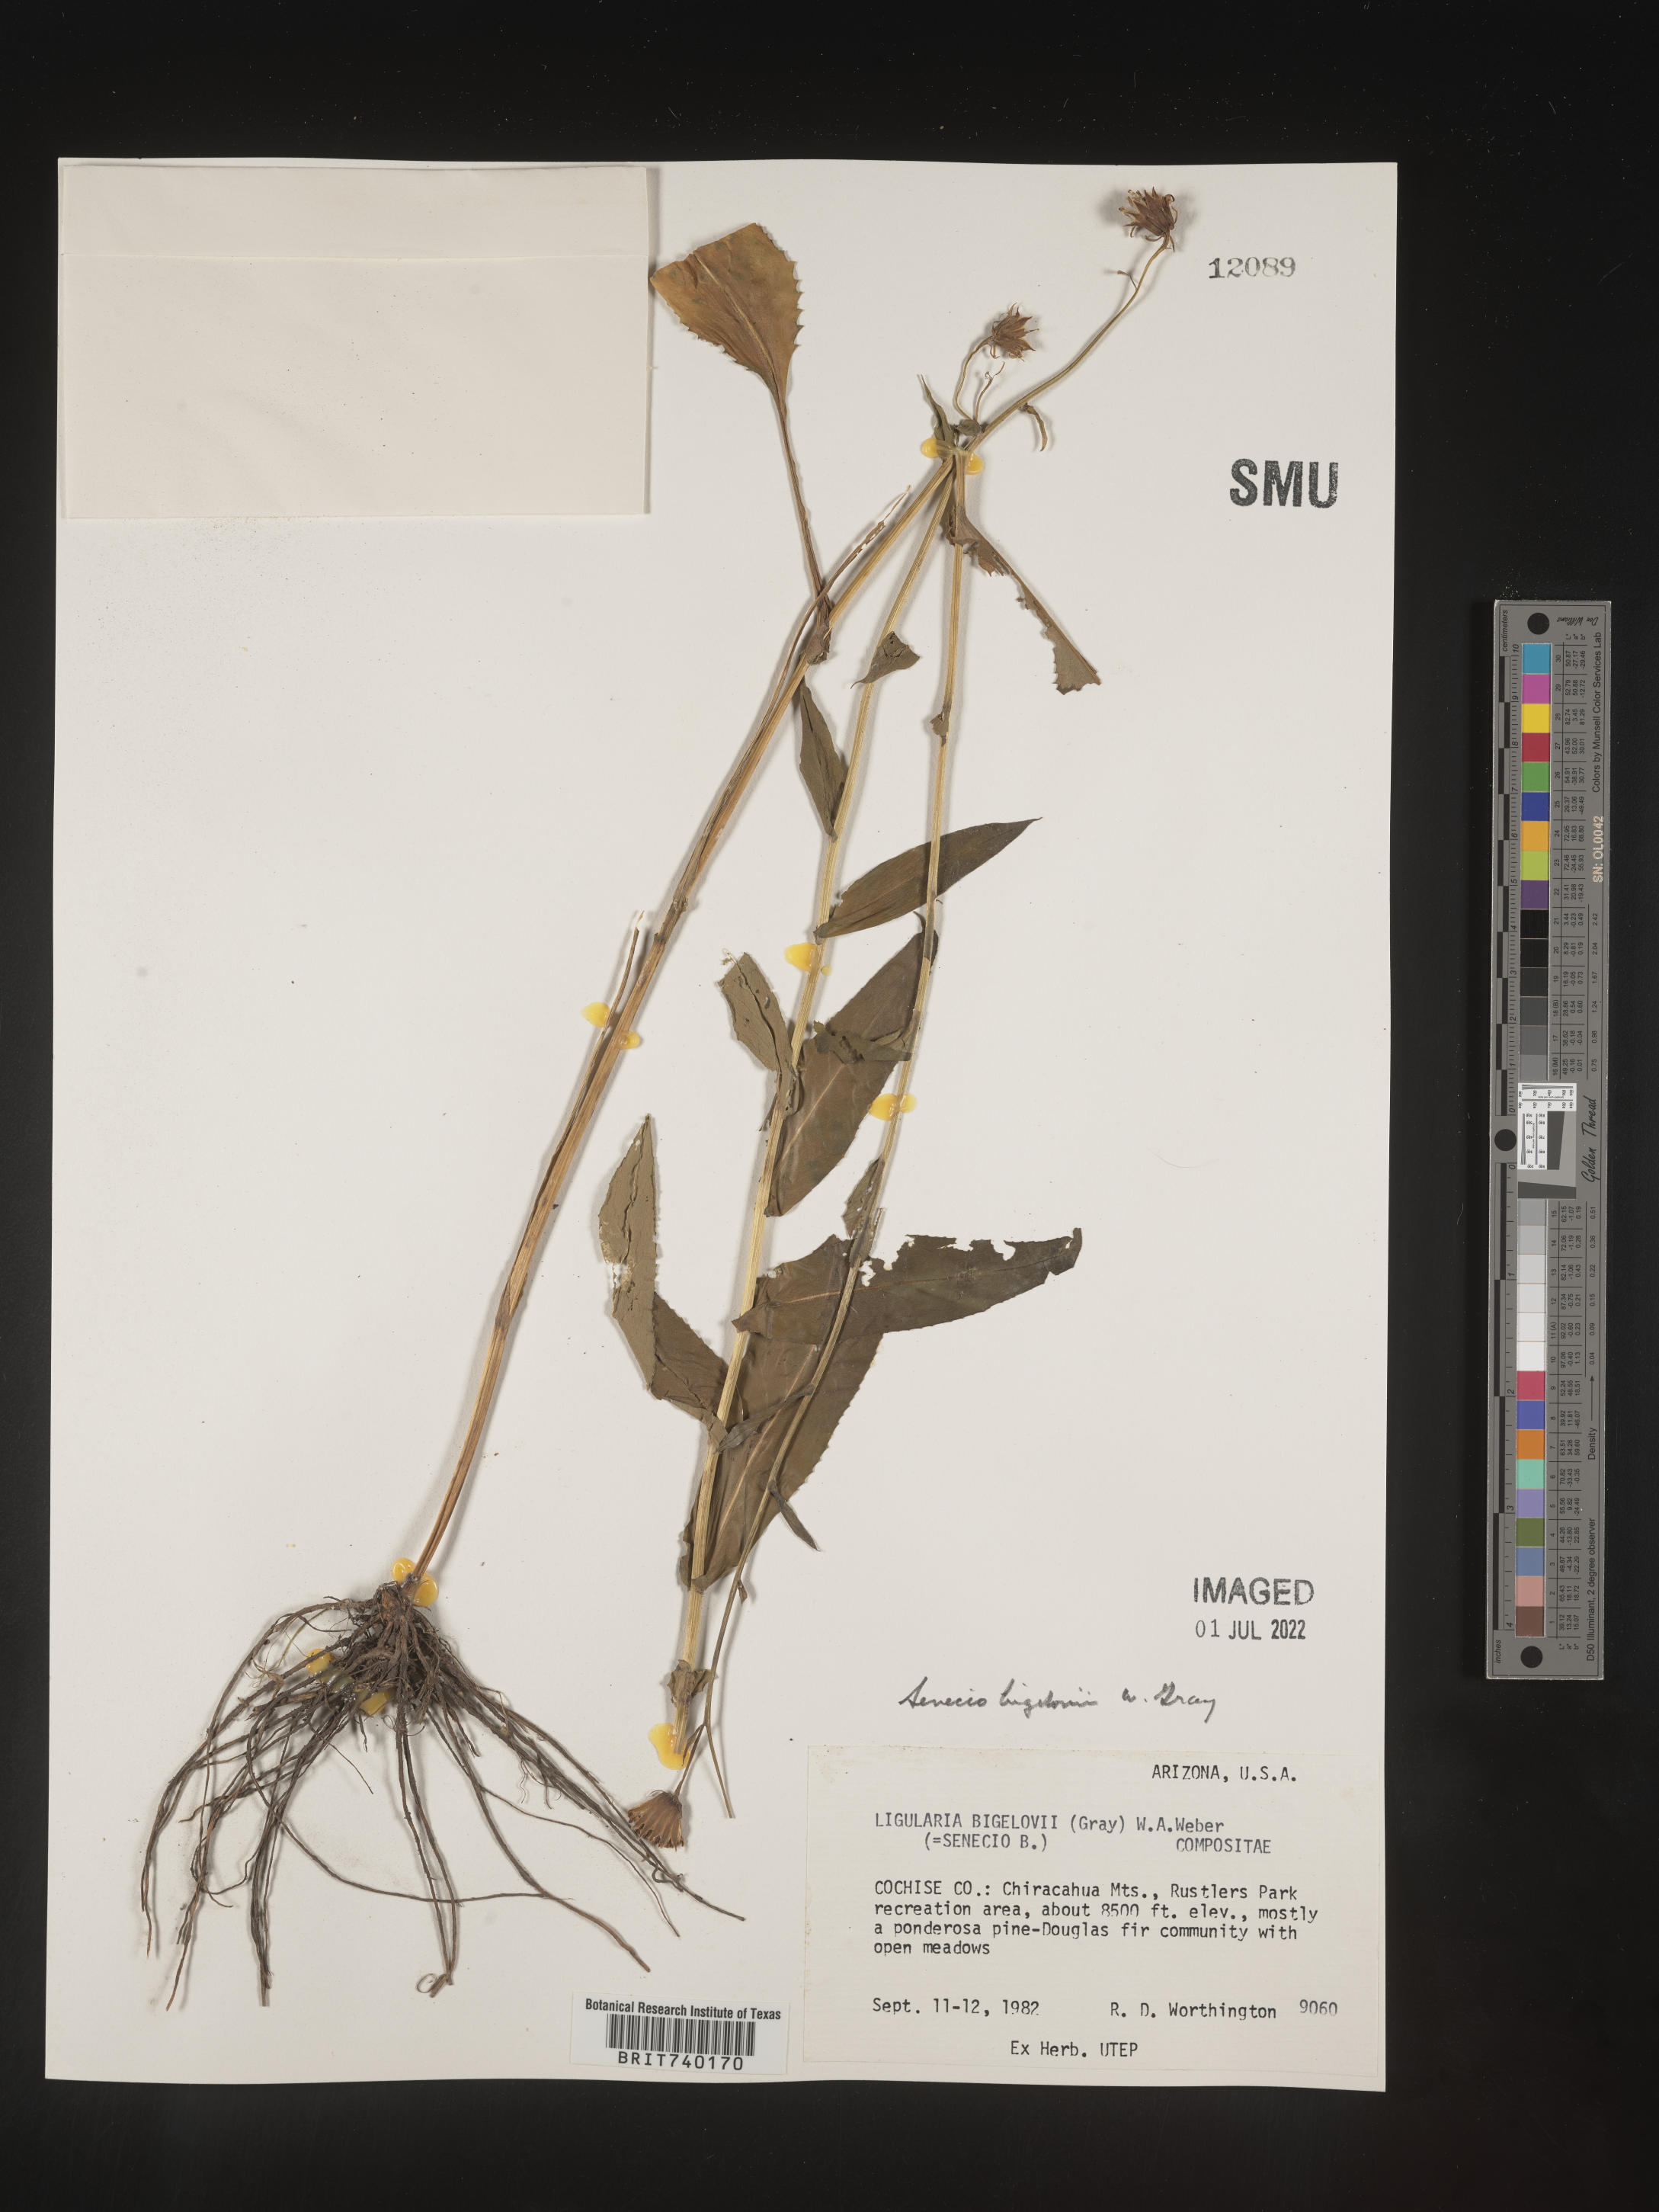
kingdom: Plantae
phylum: Tracheophyta
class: Magnoliopsida
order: Asterales
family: Asteraceae
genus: Senecio
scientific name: Senecio bigelovii
